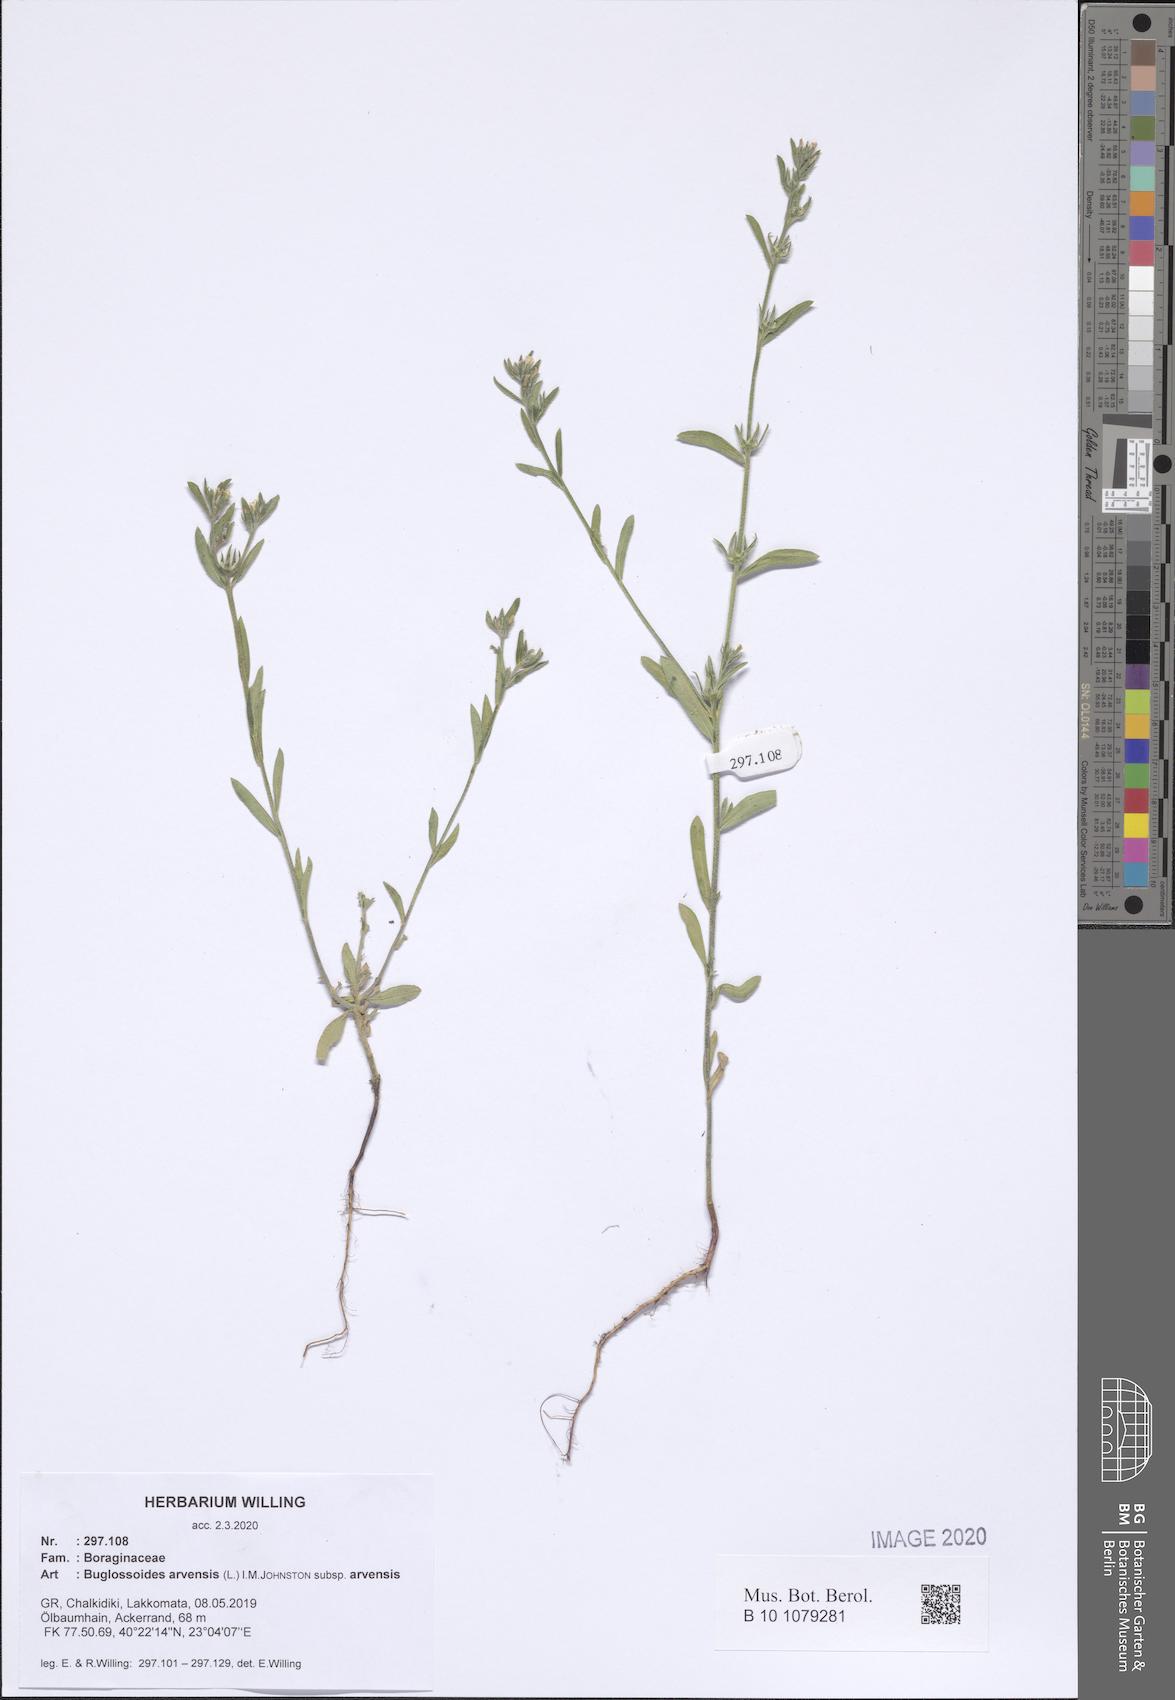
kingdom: Plantae
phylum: Tracheophyta
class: Magnoliopsida
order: Boraginales
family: Boraginaceae
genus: Buglossoides
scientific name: Buglossoides arvensis
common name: Corn gromwell
